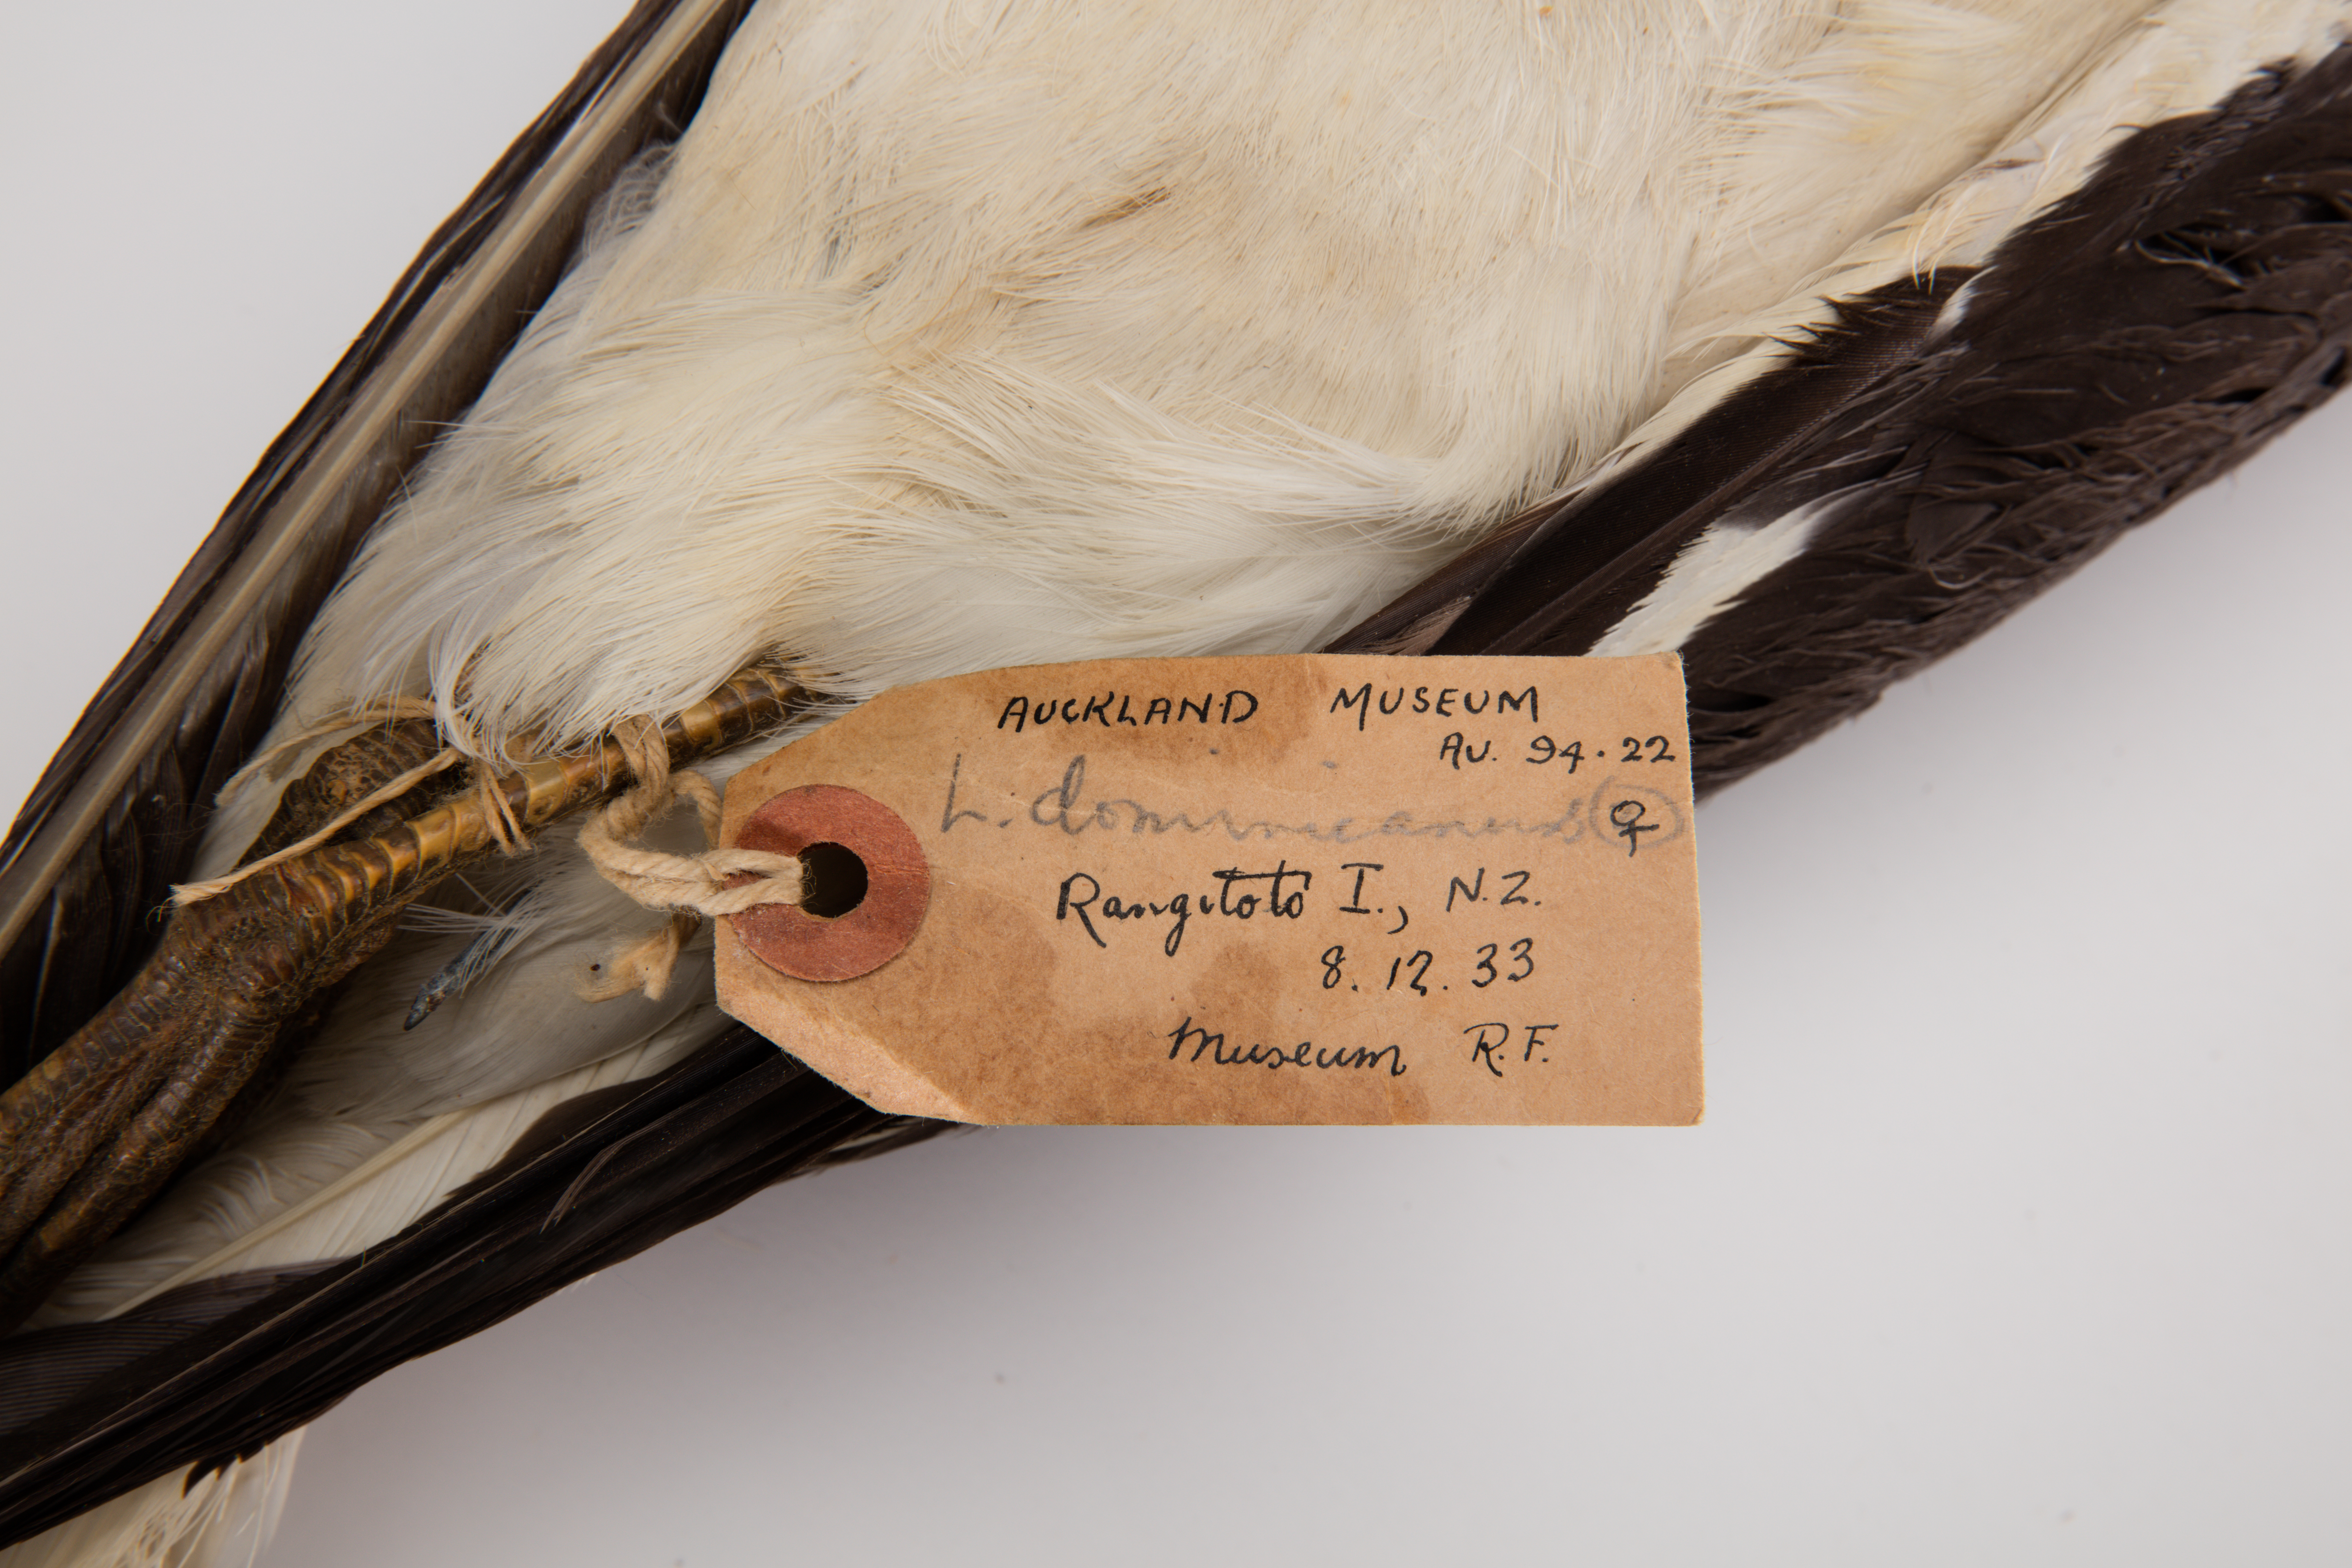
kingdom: Animalia
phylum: Chordata
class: Aves
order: Charadriiformes
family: Laridae
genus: Larus
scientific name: Larus dominicanus
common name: Kelp gull
